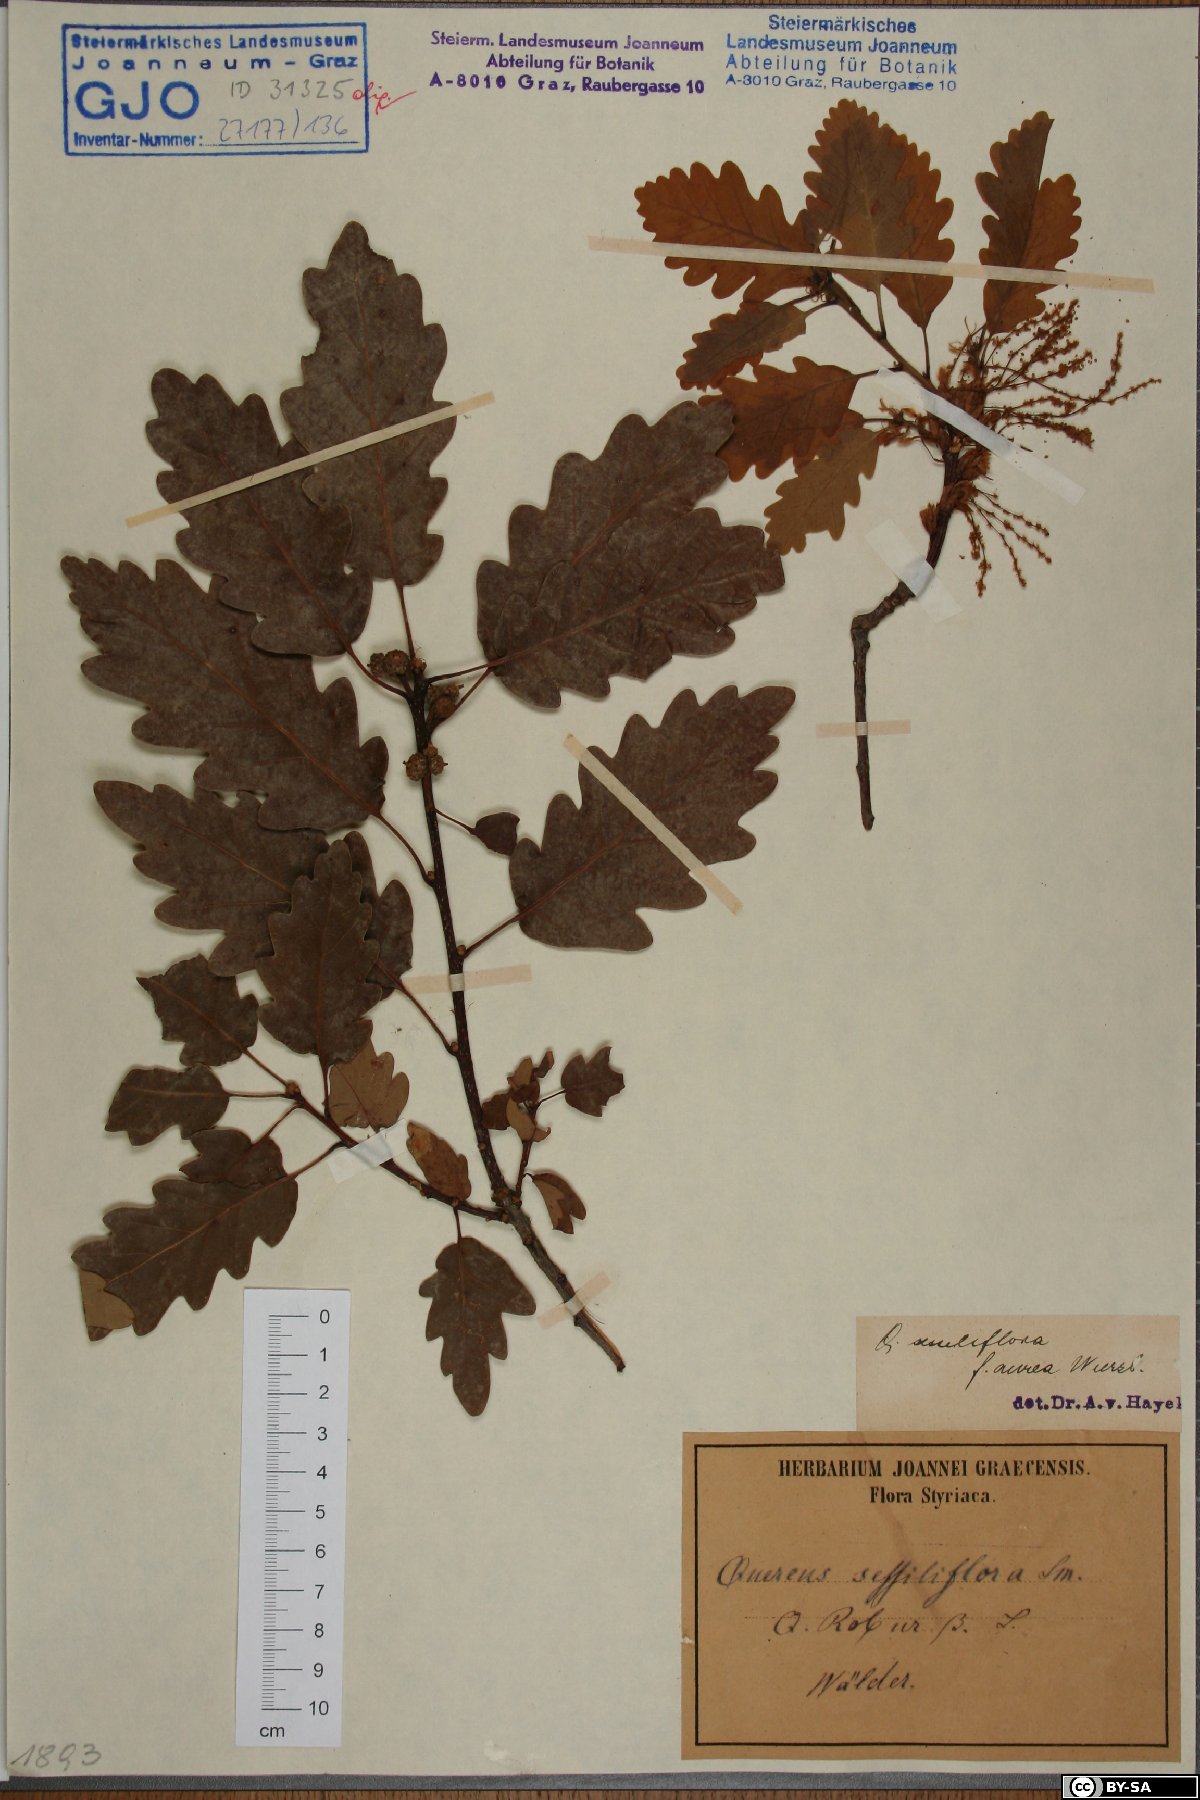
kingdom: Plantae
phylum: Tracheophyta
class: Magnoliopsida
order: Fagales
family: Fagaceae
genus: Quercus
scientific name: Quercus aurea
